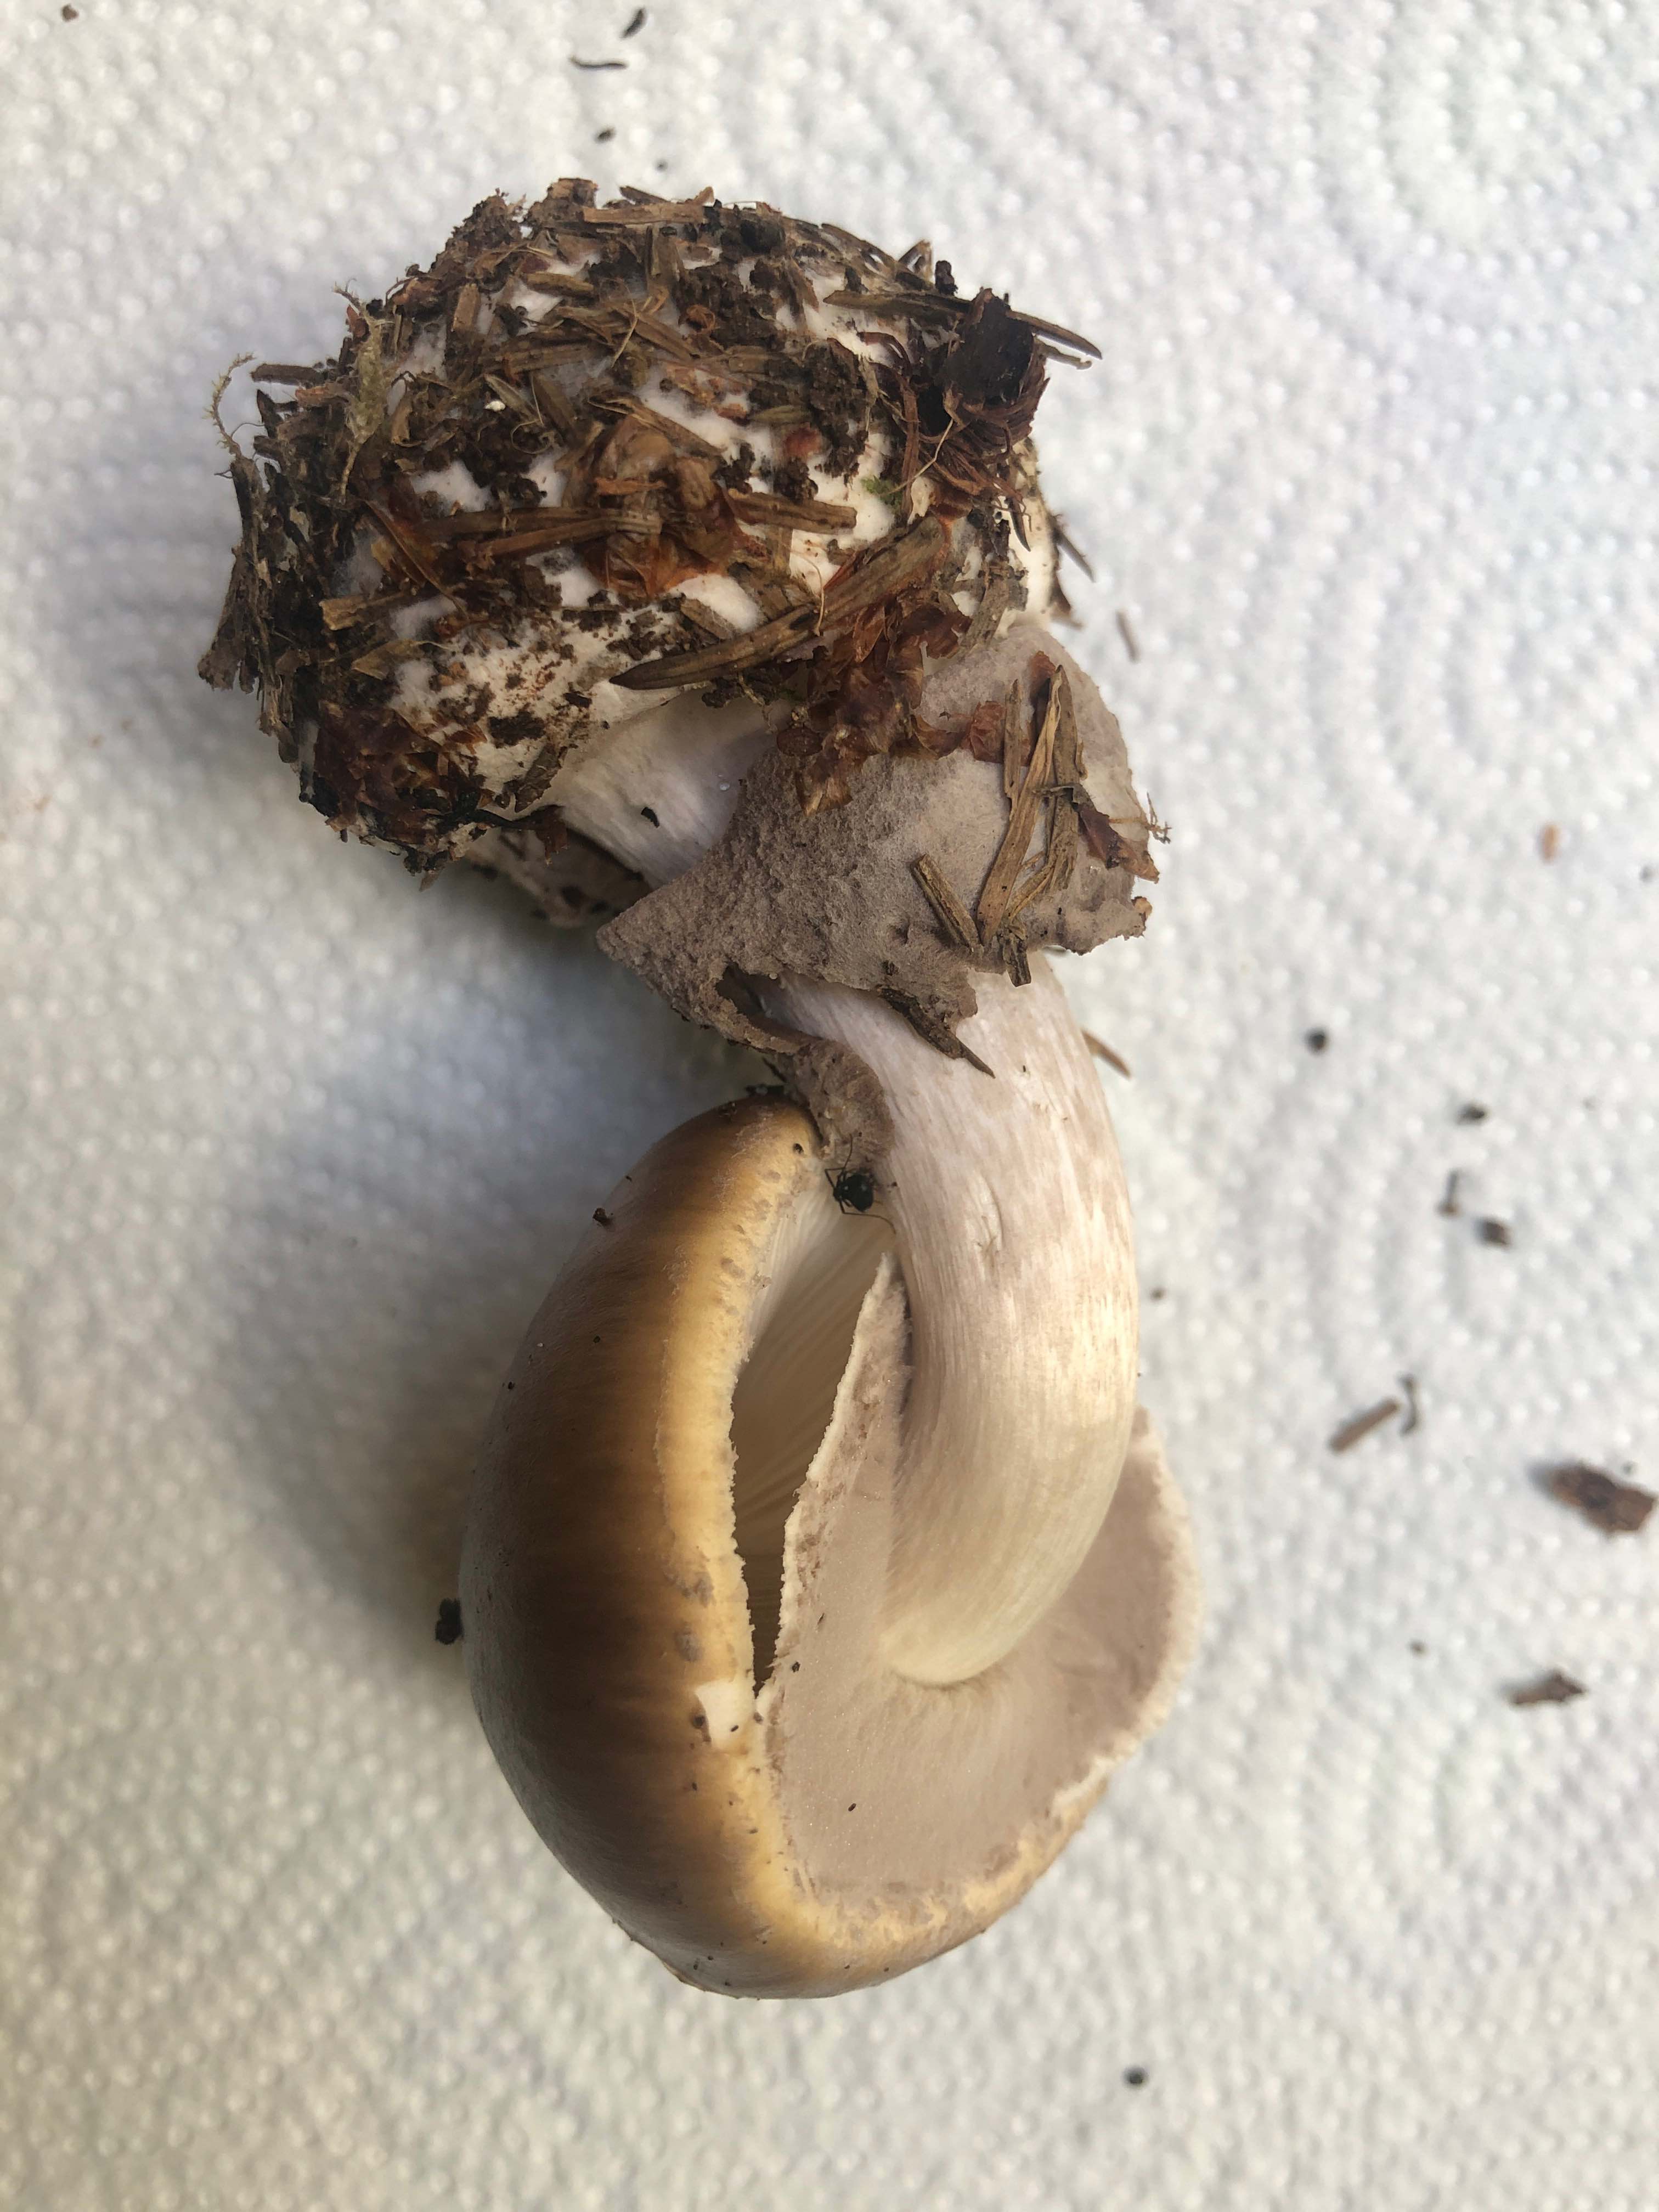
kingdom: Fungi
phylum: Basidiomycota
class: Agaricomycetes
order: Agaricales
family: Amanitaceae
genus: Amanita
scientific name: Amanita porphyria
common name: porfyr-fluesvamp
